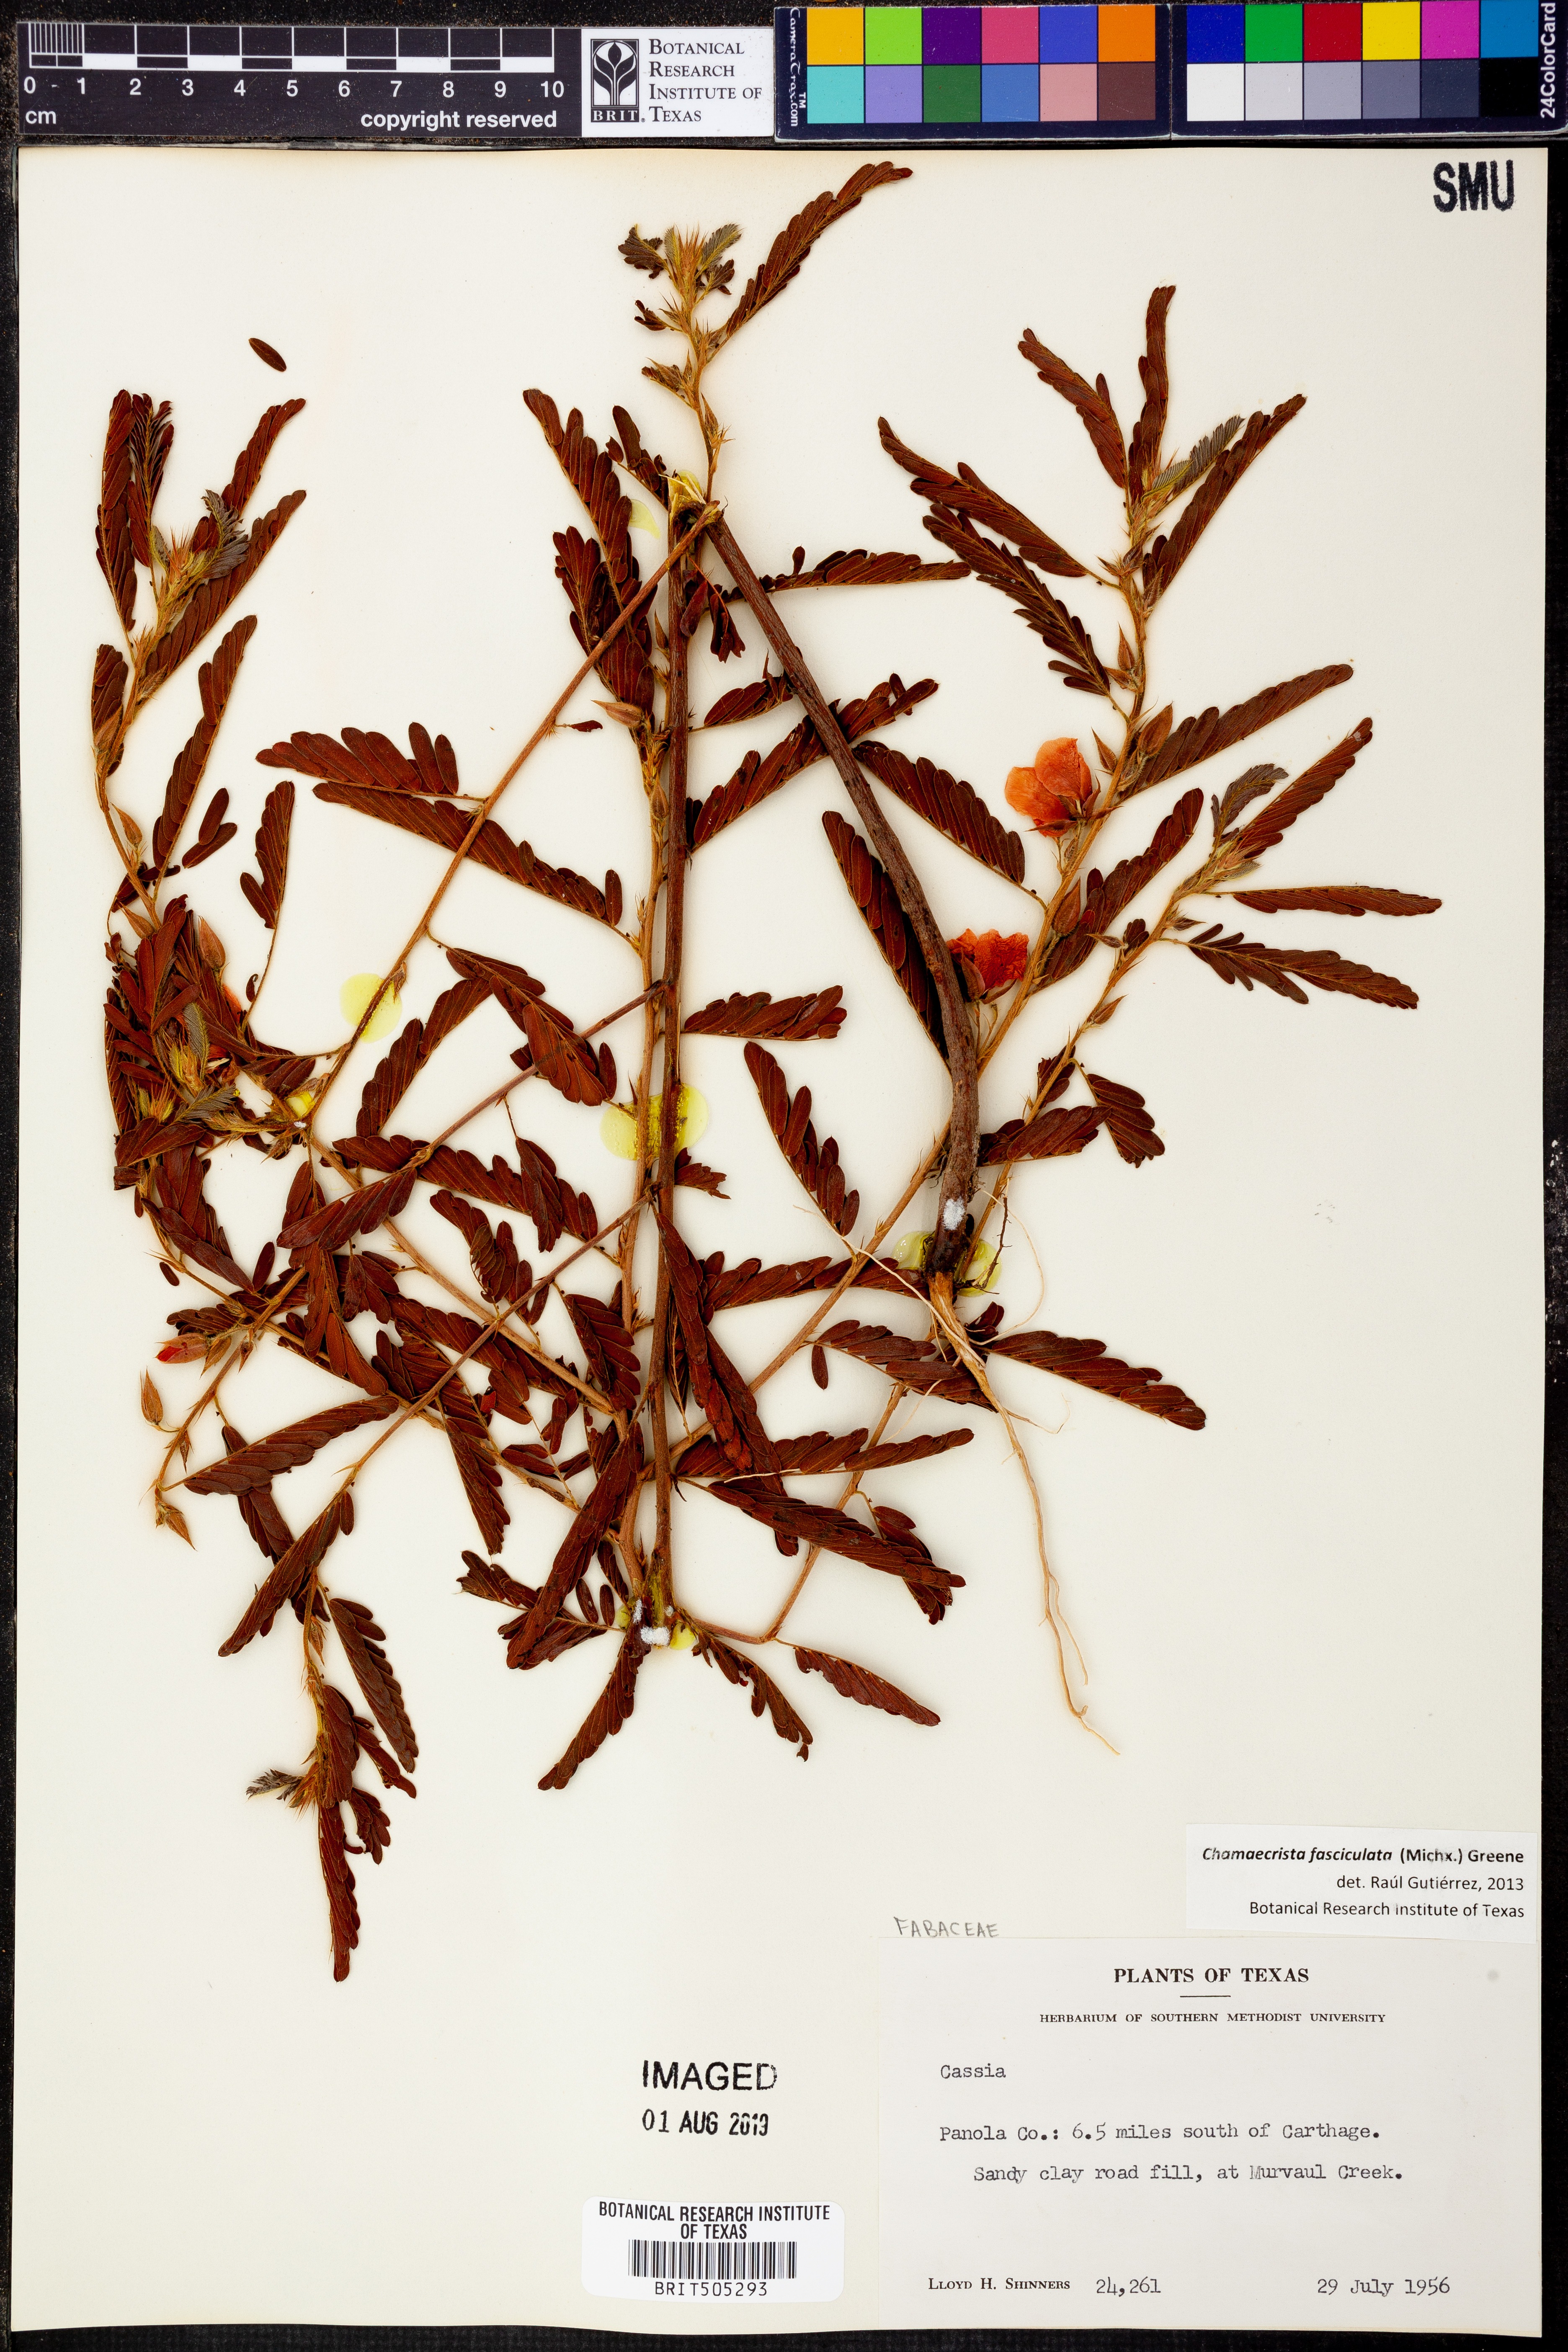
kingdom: Plantae
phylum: Tracheophyta
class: Magnoliopsida
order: Fabales
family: Fabaceae
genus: Chamaecrista
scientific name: Chamaecrista fasciculata
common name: Golden cassia
